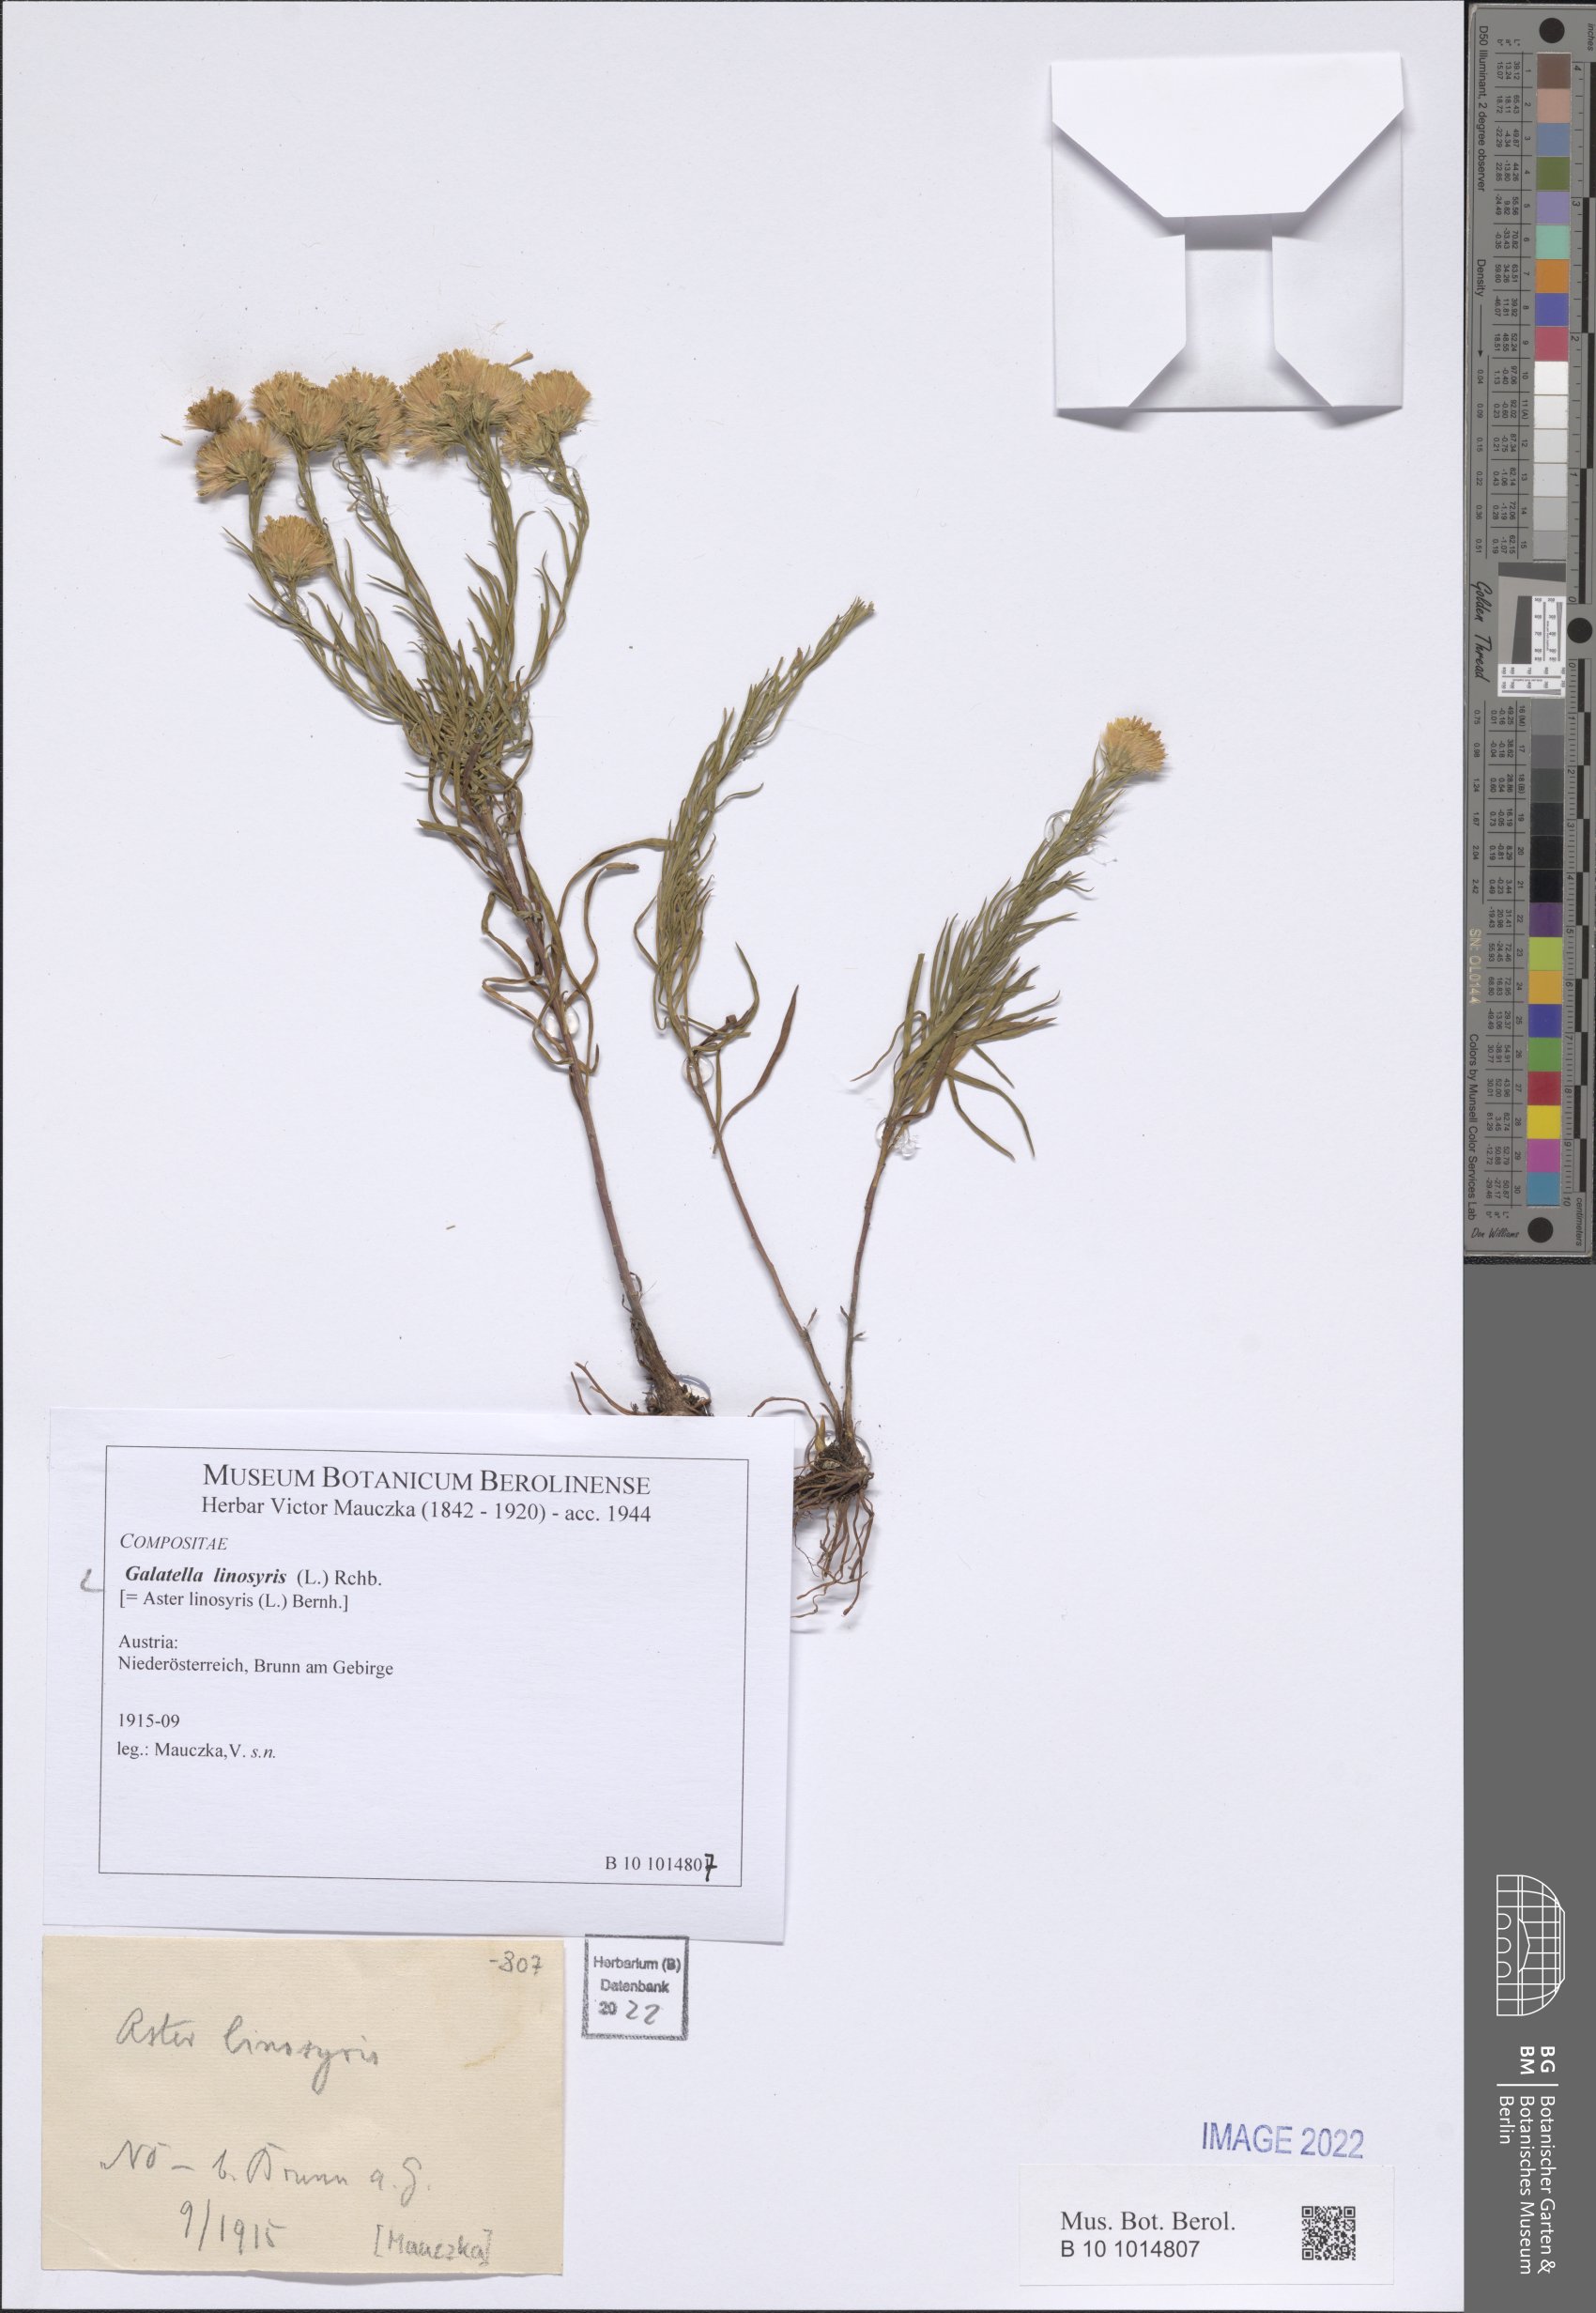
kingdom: Plantae
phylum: Tracheophyta
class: Magnoliopsida
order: Asterales
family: Asteraceae
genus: Galatella
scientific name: Galatella linosyris
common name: Goldilocks aster
